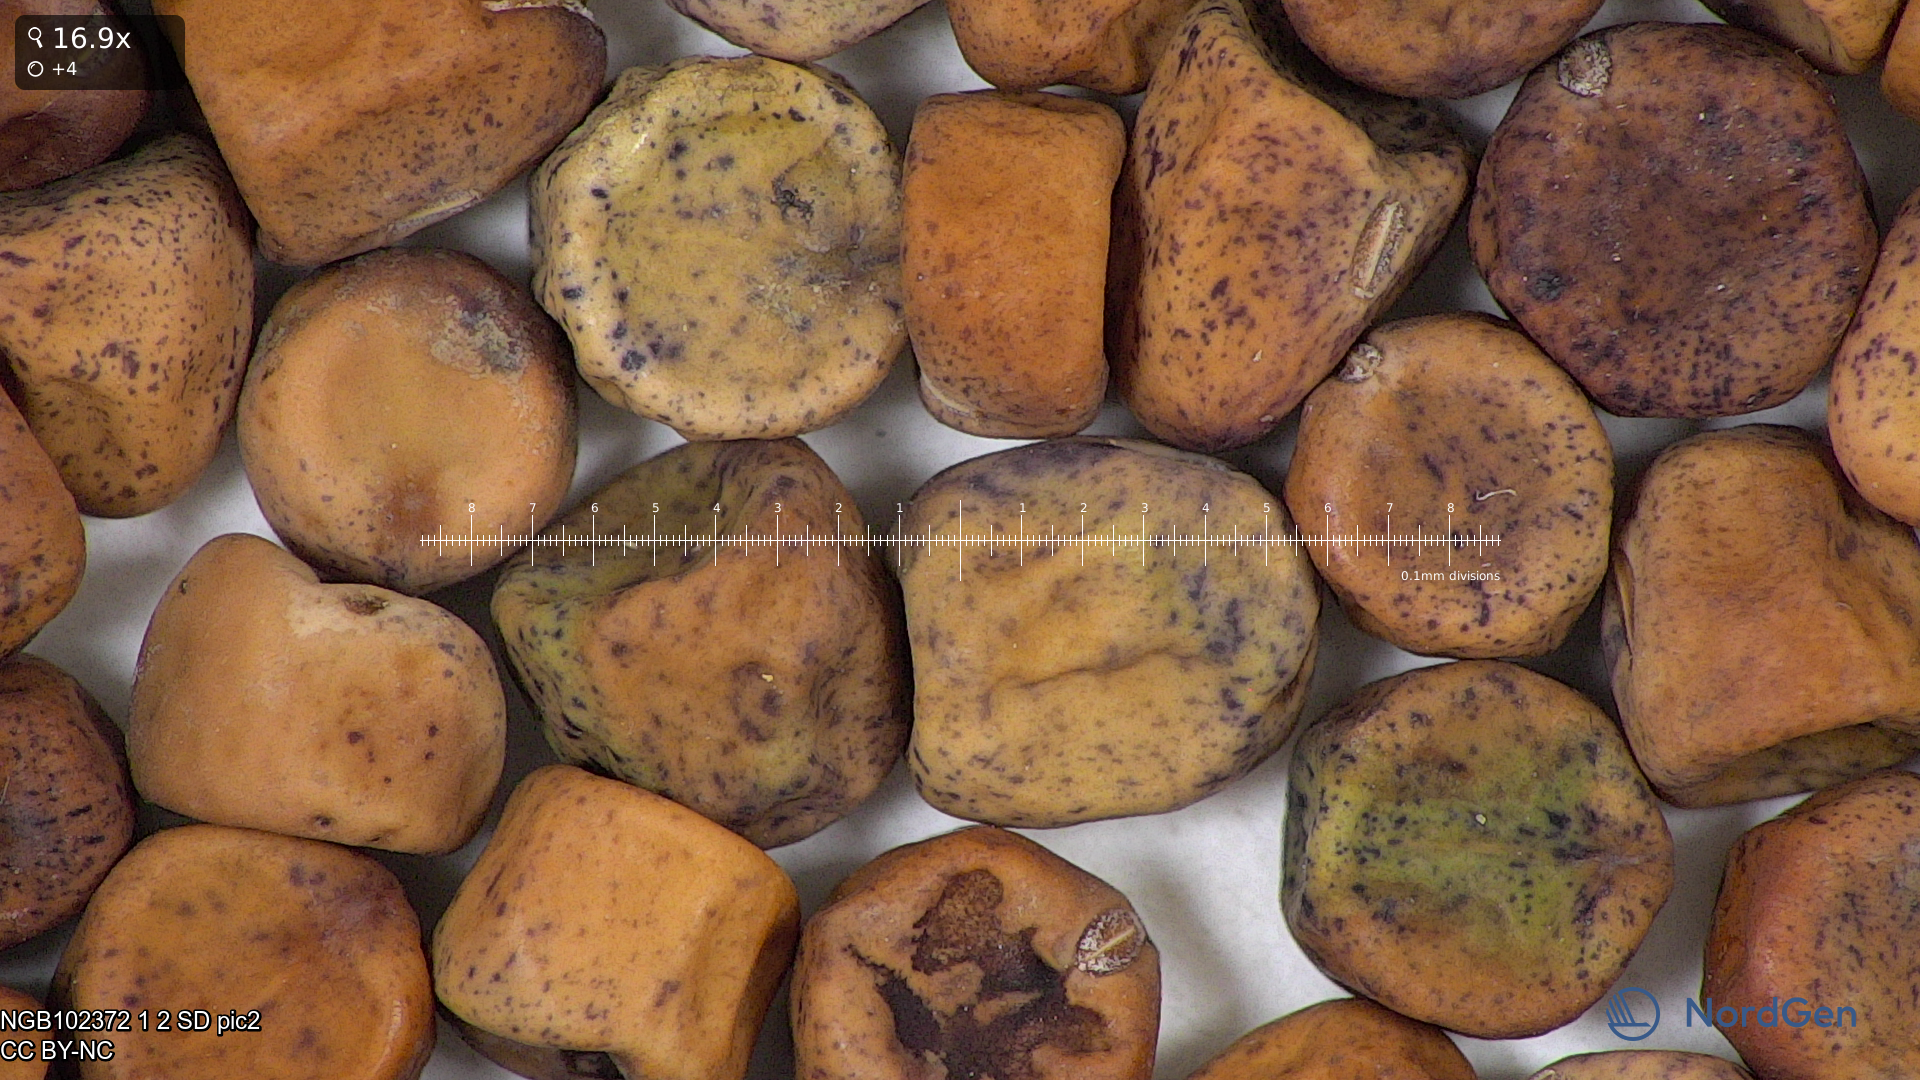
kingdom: Plantae
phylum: Tracheophyta
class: Magnoliopsida
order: Fabales
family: Fabaceae
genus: Lathyrus
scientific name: Lathyrus oleraceus
